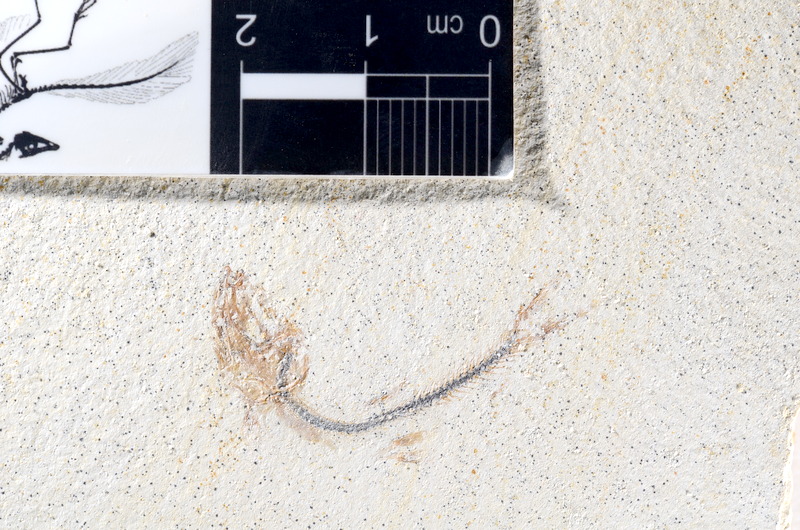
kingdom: Animalia
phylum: Chordata
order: Salmoniformes
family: Orthogonikleithridae
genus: Orthogonikleithrus
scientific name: Orthogonikleithrus hoelli
